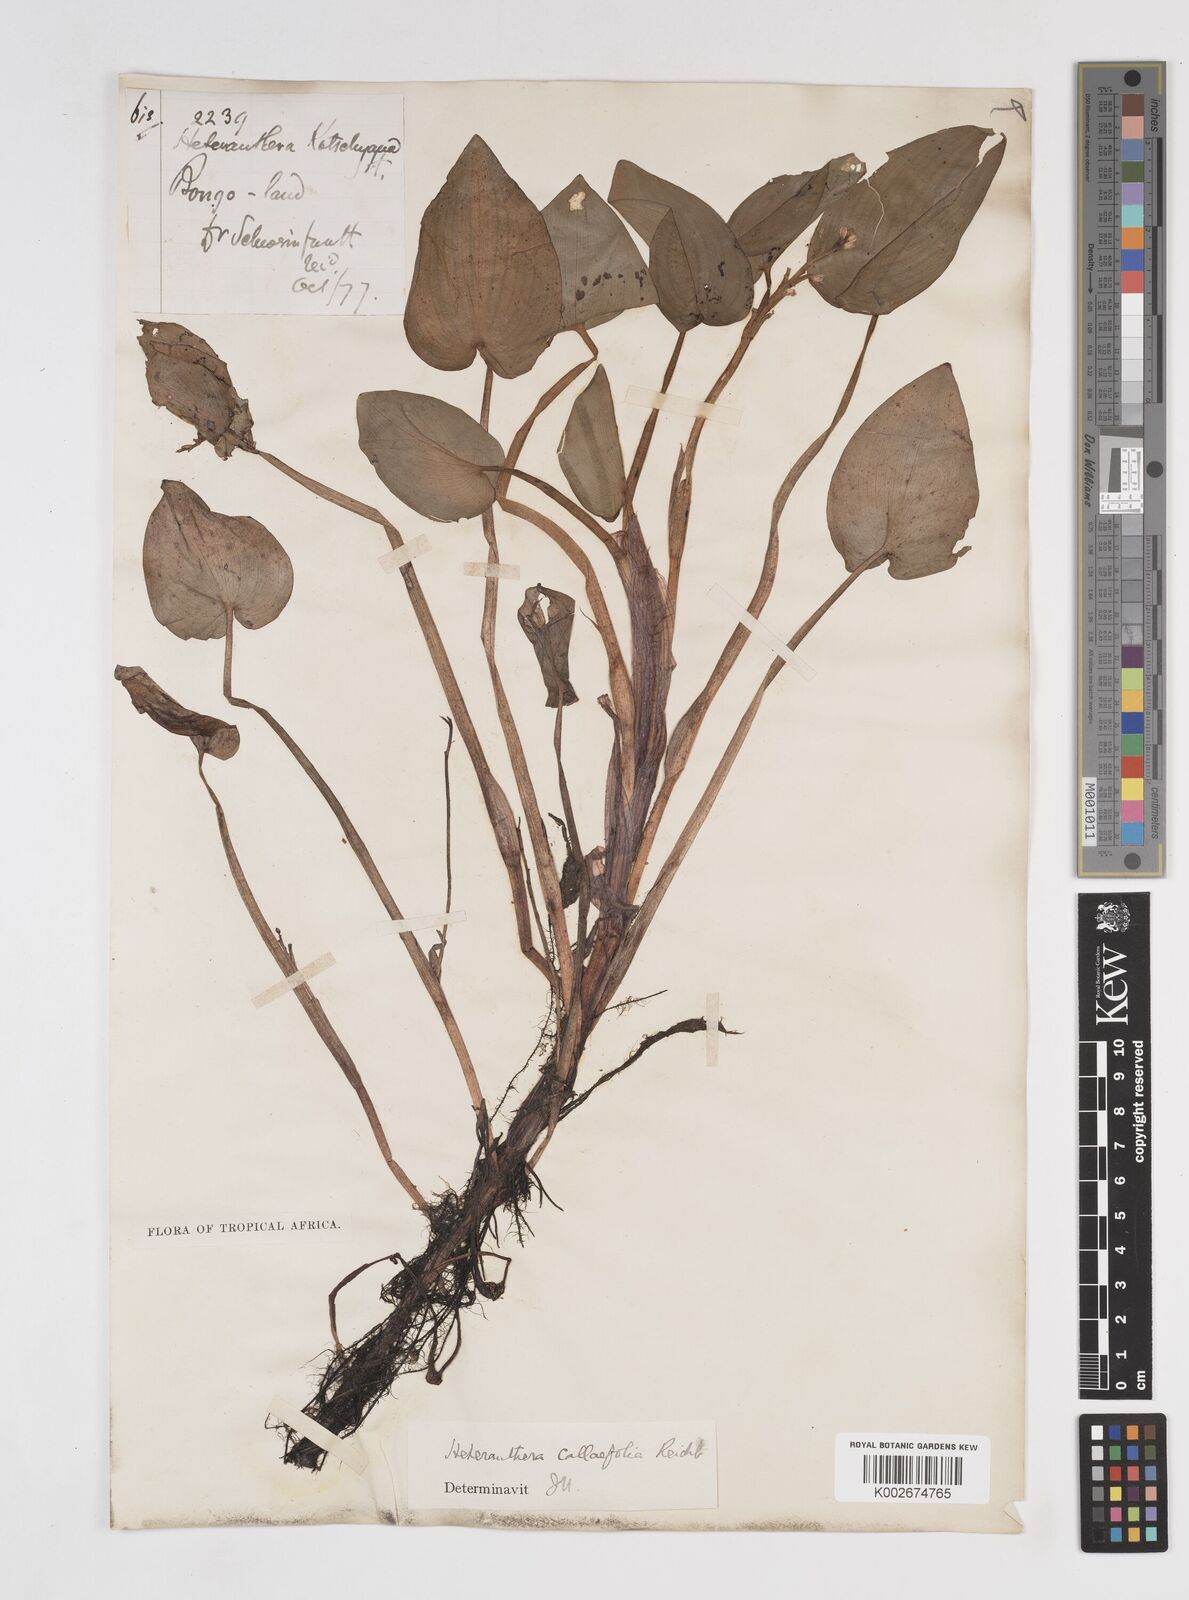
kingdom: Plantae
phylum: Tracheophyta
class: Liliopsida
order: Commelinales
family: Pontederiaceae
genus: Heteranthera
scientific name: Heteranthera callifolia
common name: Mud plantain
